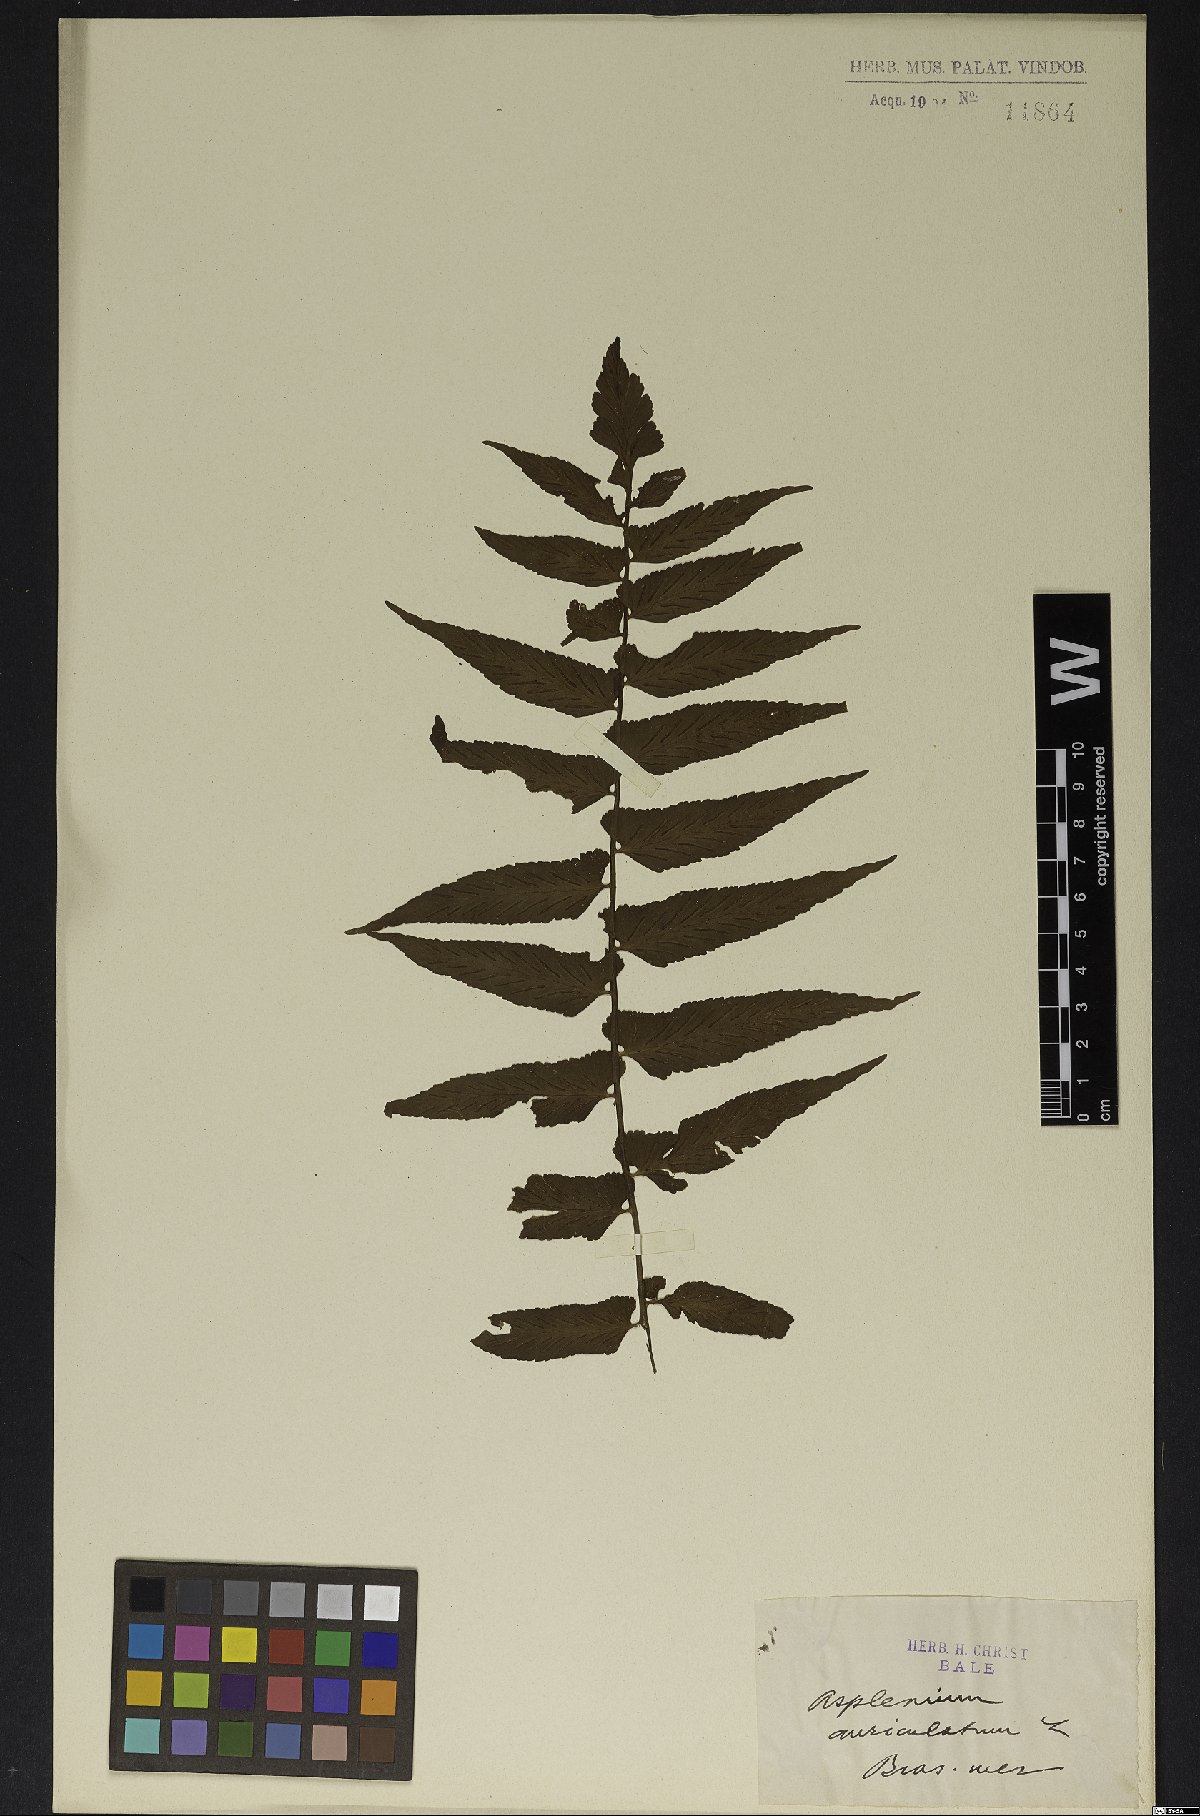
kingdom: Plantae
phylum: Tracheophyta
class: Polypodiopsida
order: Polypodiales
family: Aspleniaceae
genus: Asplenium
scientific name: Asplenium auriculatum
